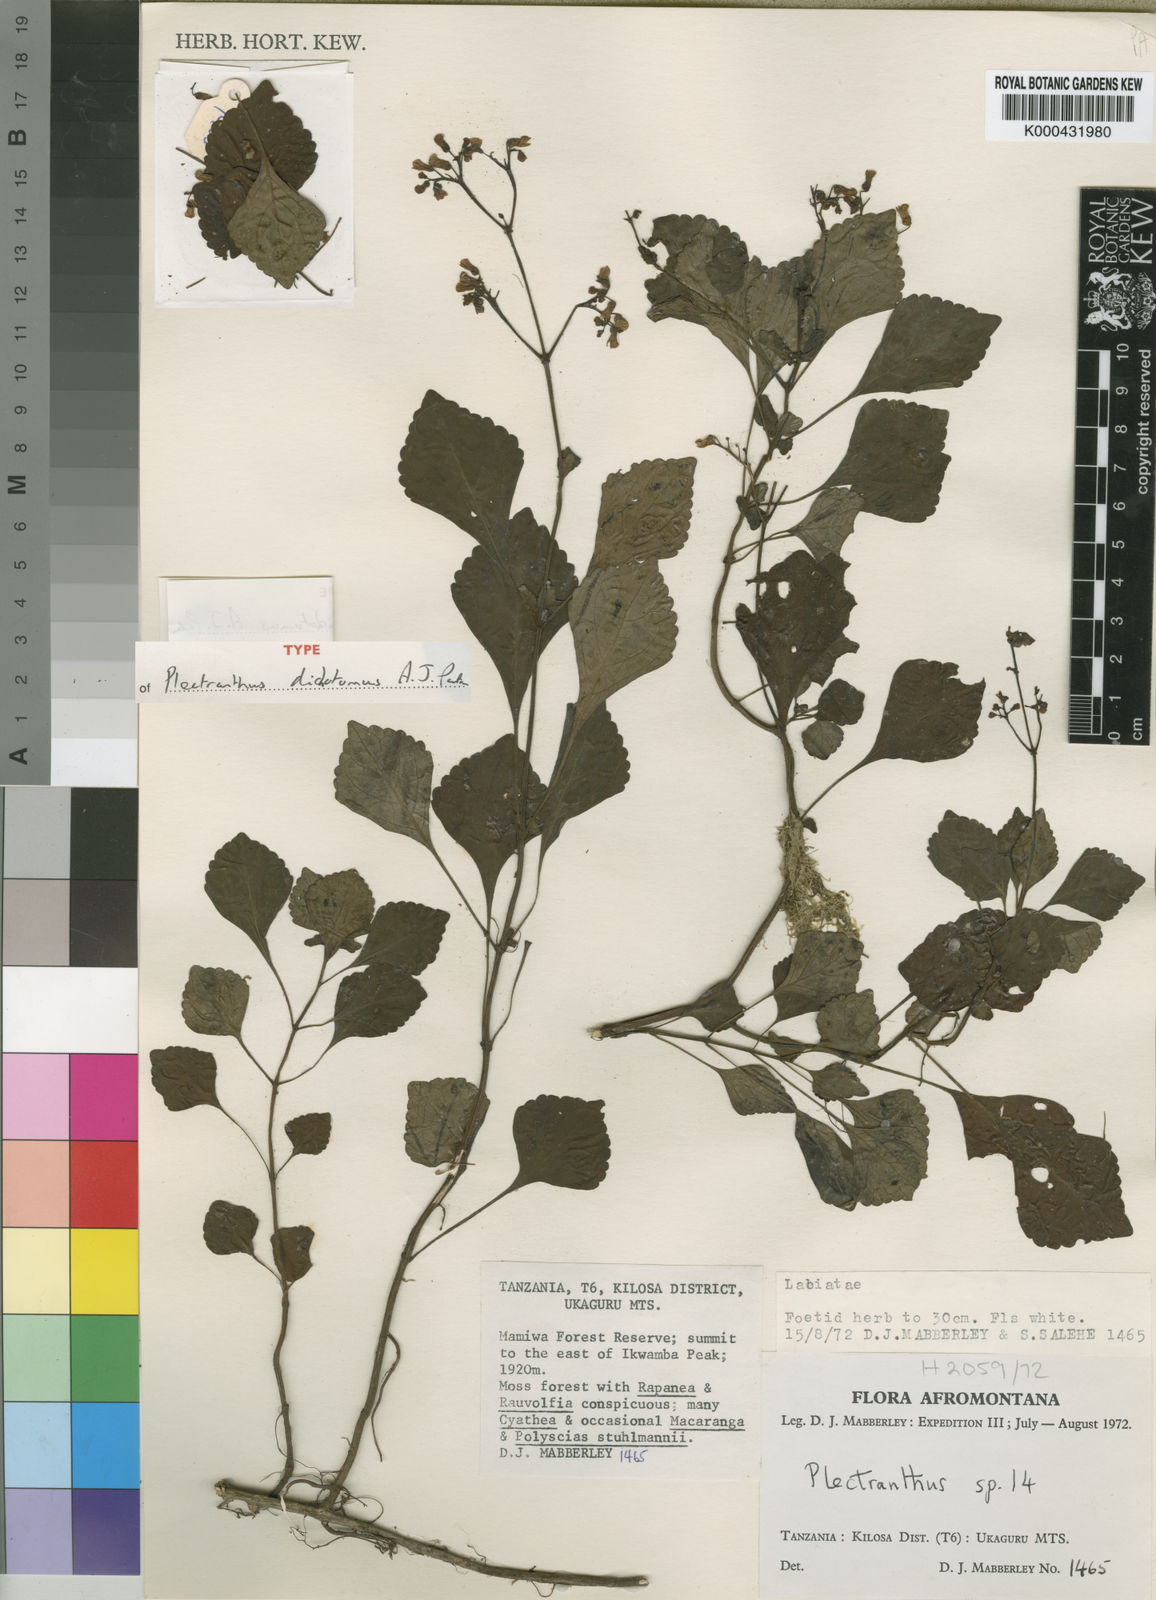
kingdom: Plantae
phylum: Tracheophyta
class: Magnoliopsida
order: Lamiales
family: Lamiaceae
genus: Coleus
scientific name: Coleus dichotomus
